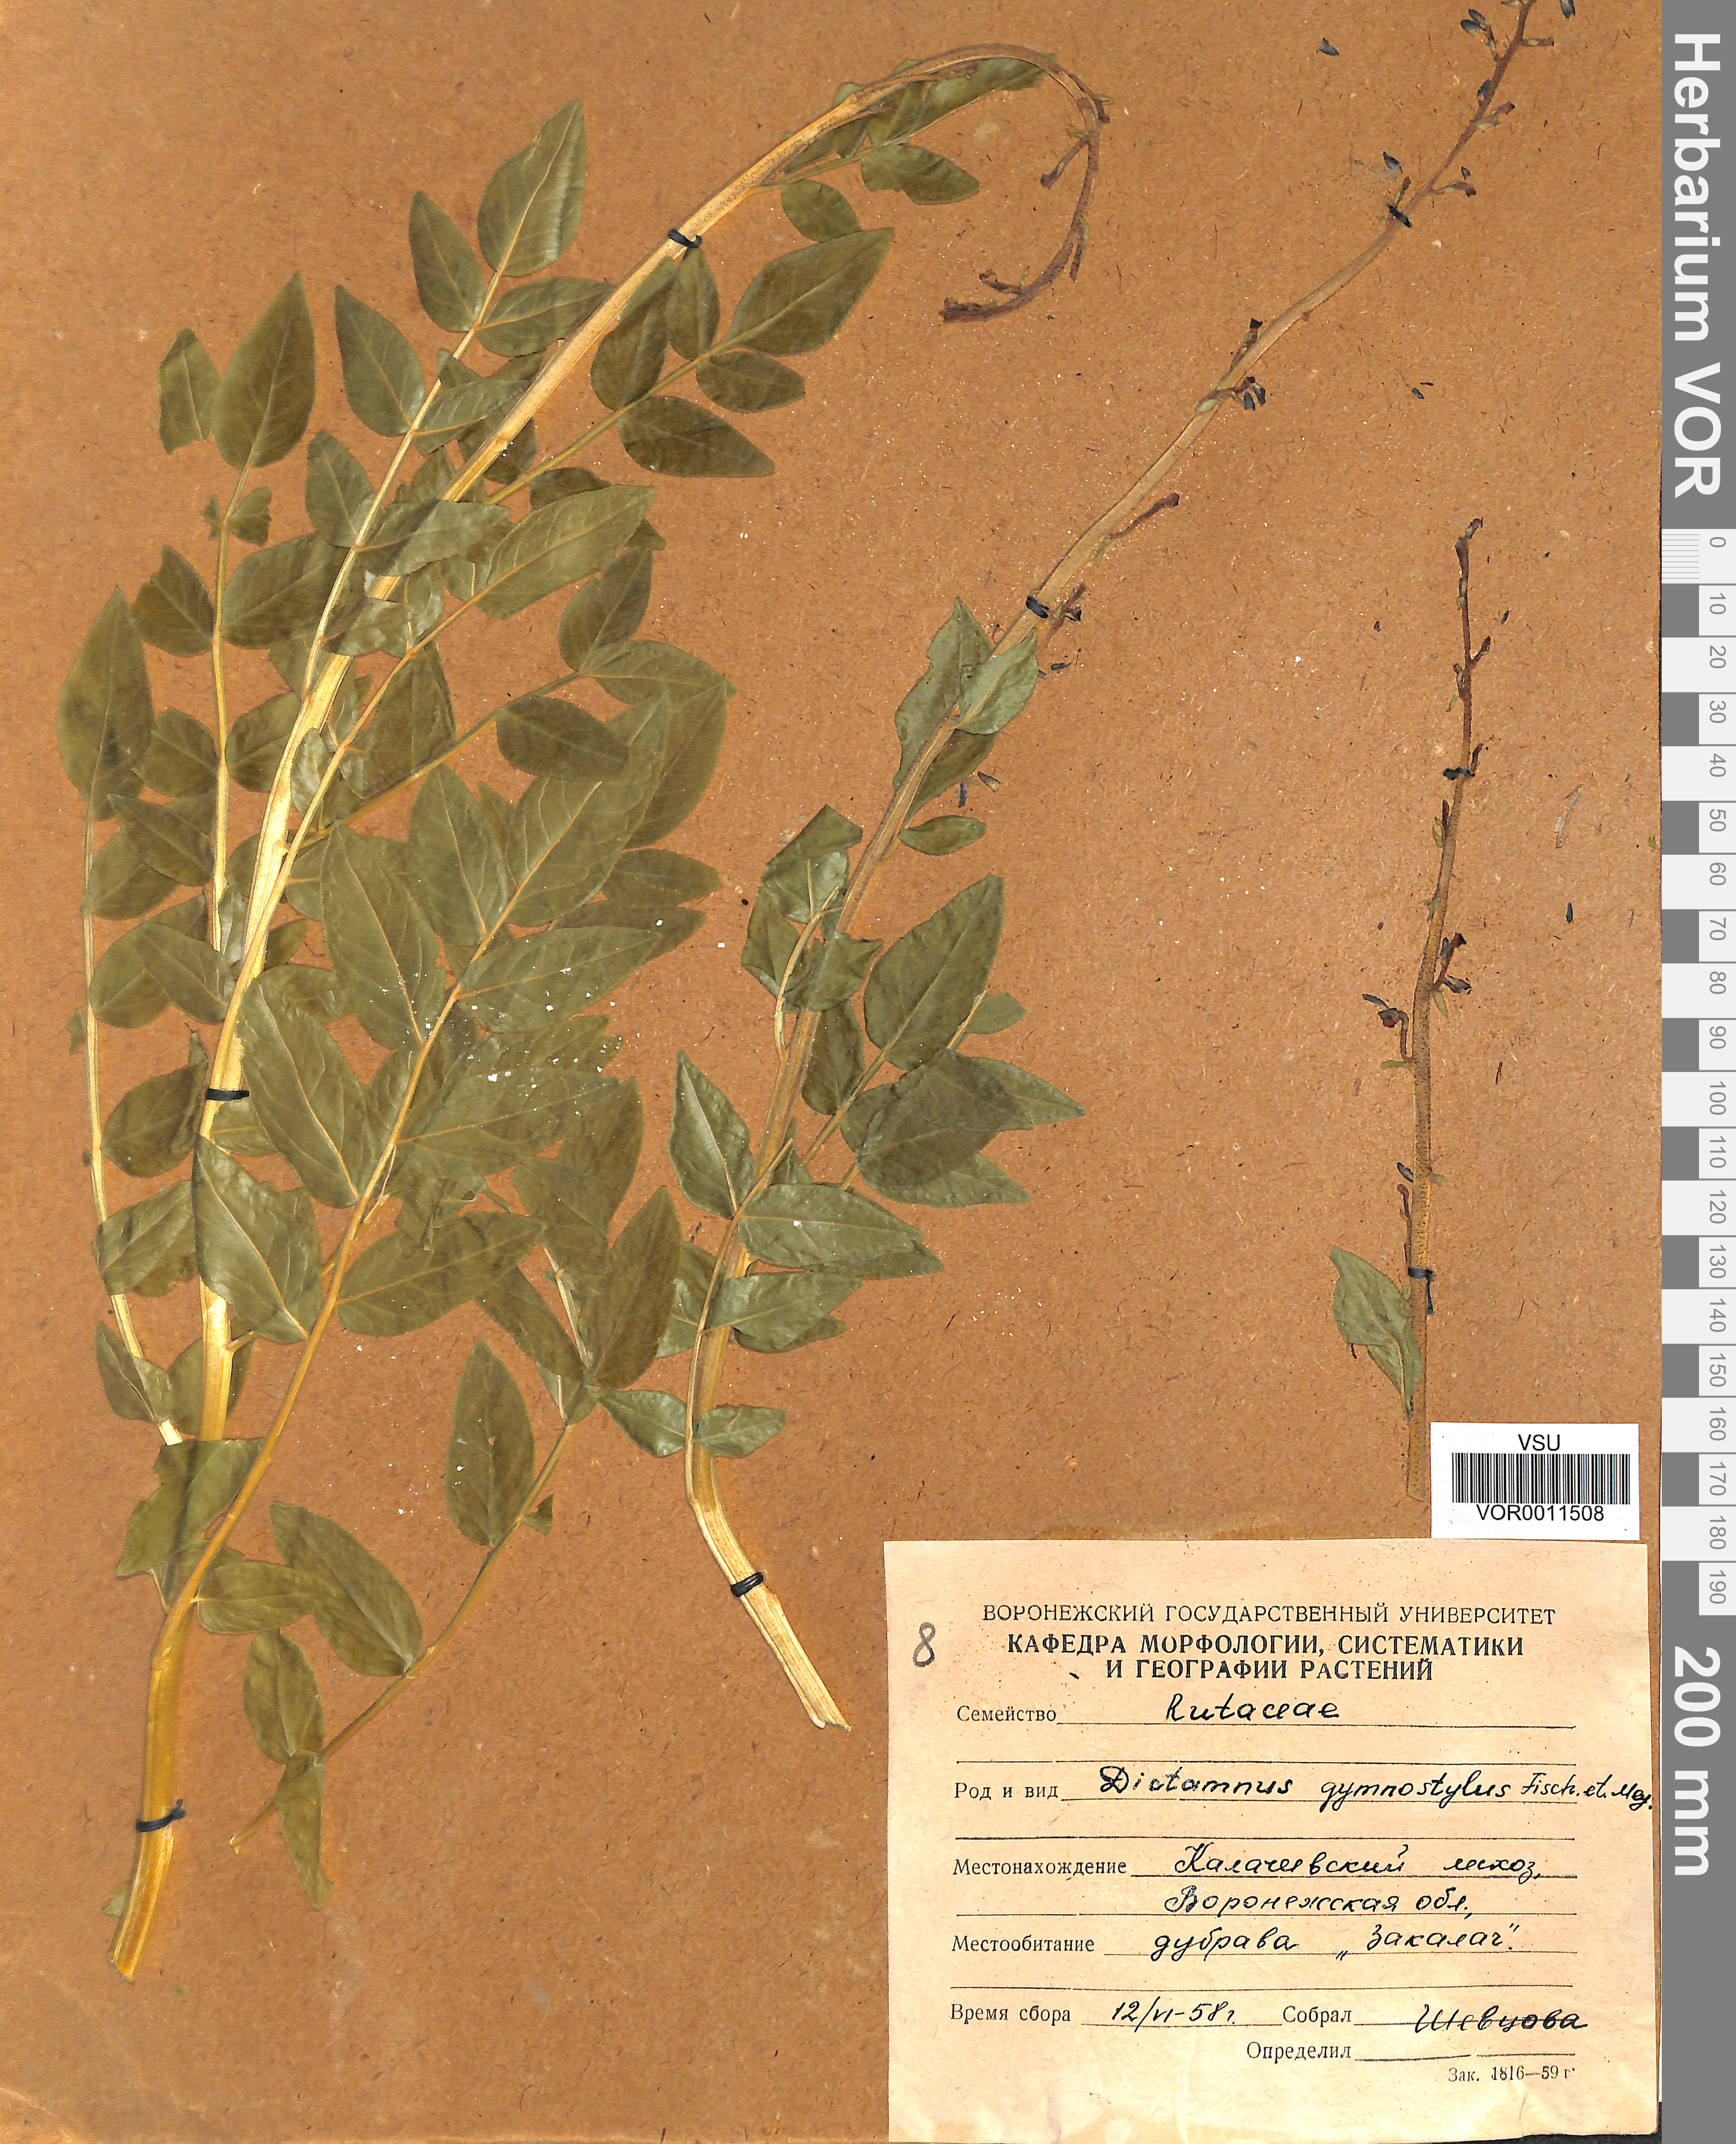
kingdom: Plantae
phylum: Tracheophyta
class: Magnoliopsida
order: Sapindales
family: Rutaceae
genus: Dictamnus
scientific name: Dictamnus albus
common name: Gasplant
